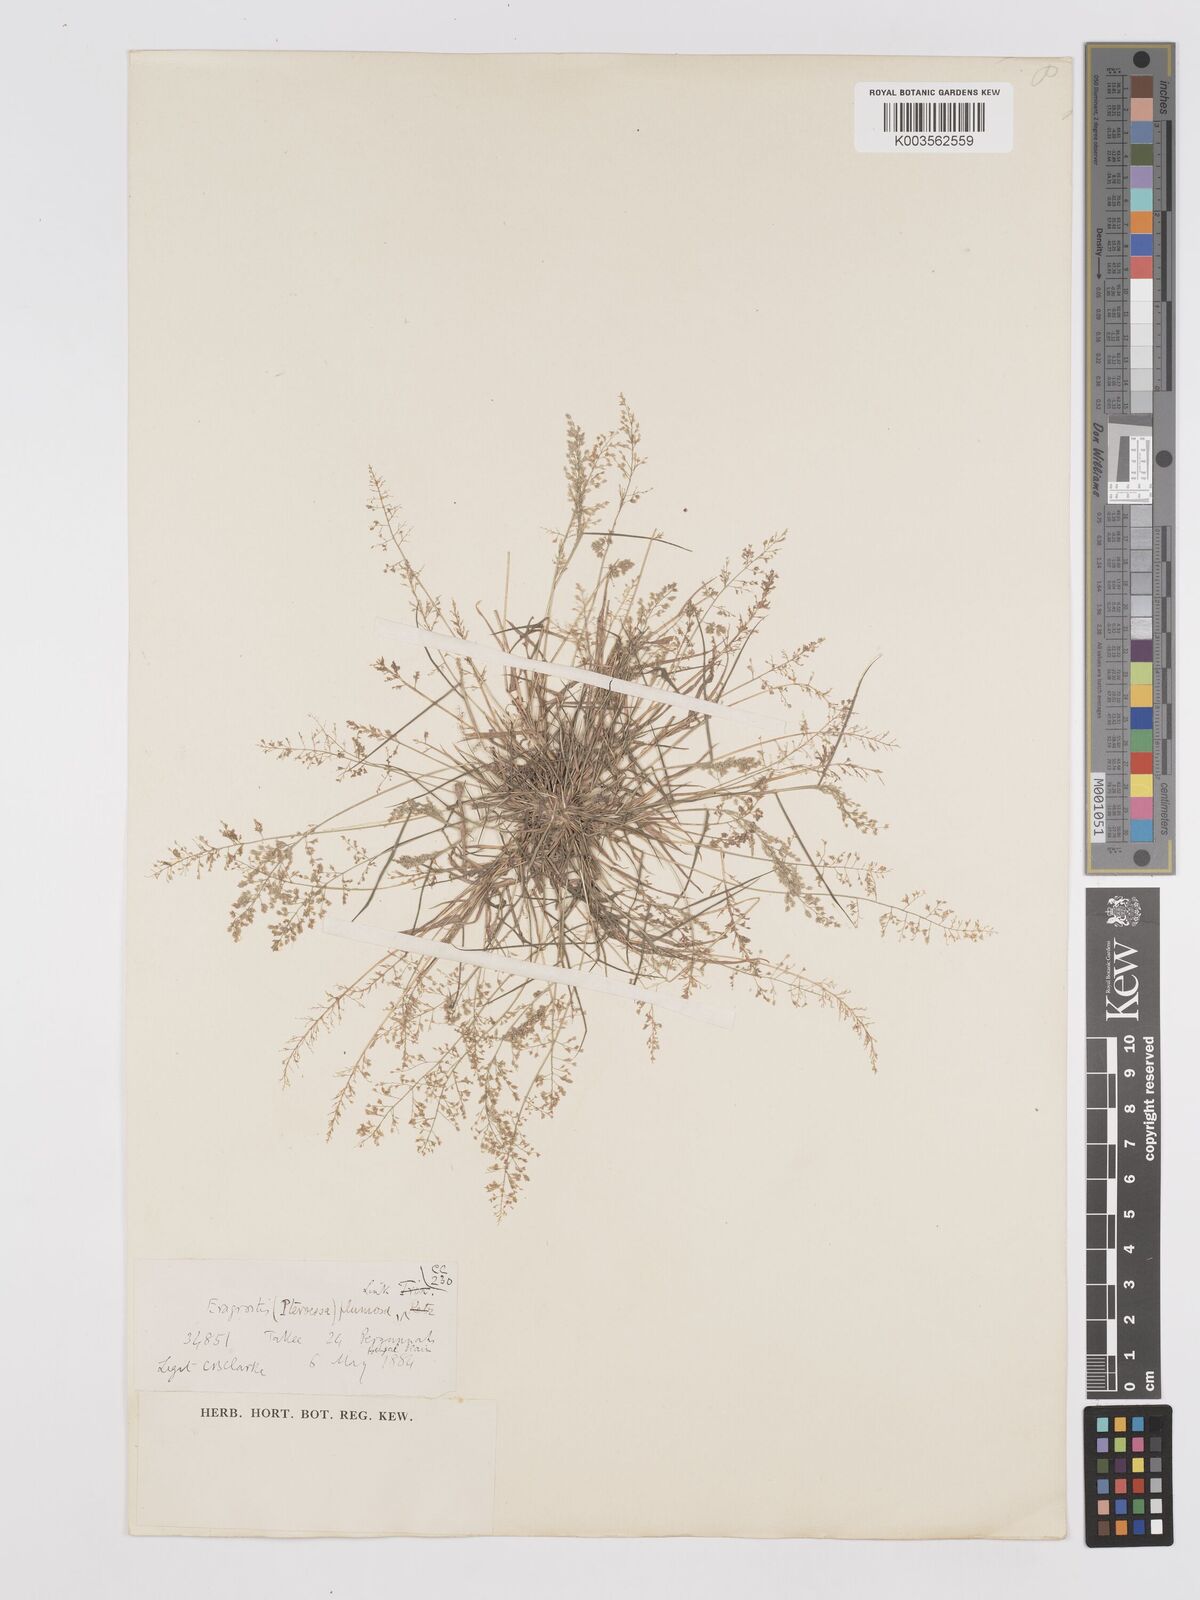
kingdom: Plantae
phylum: Tracheophyta
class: Liliopsida
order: Poales
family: Poaceae
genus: Eragrostis
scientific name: Eragrostis tenella
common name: Japanese lovegrass
